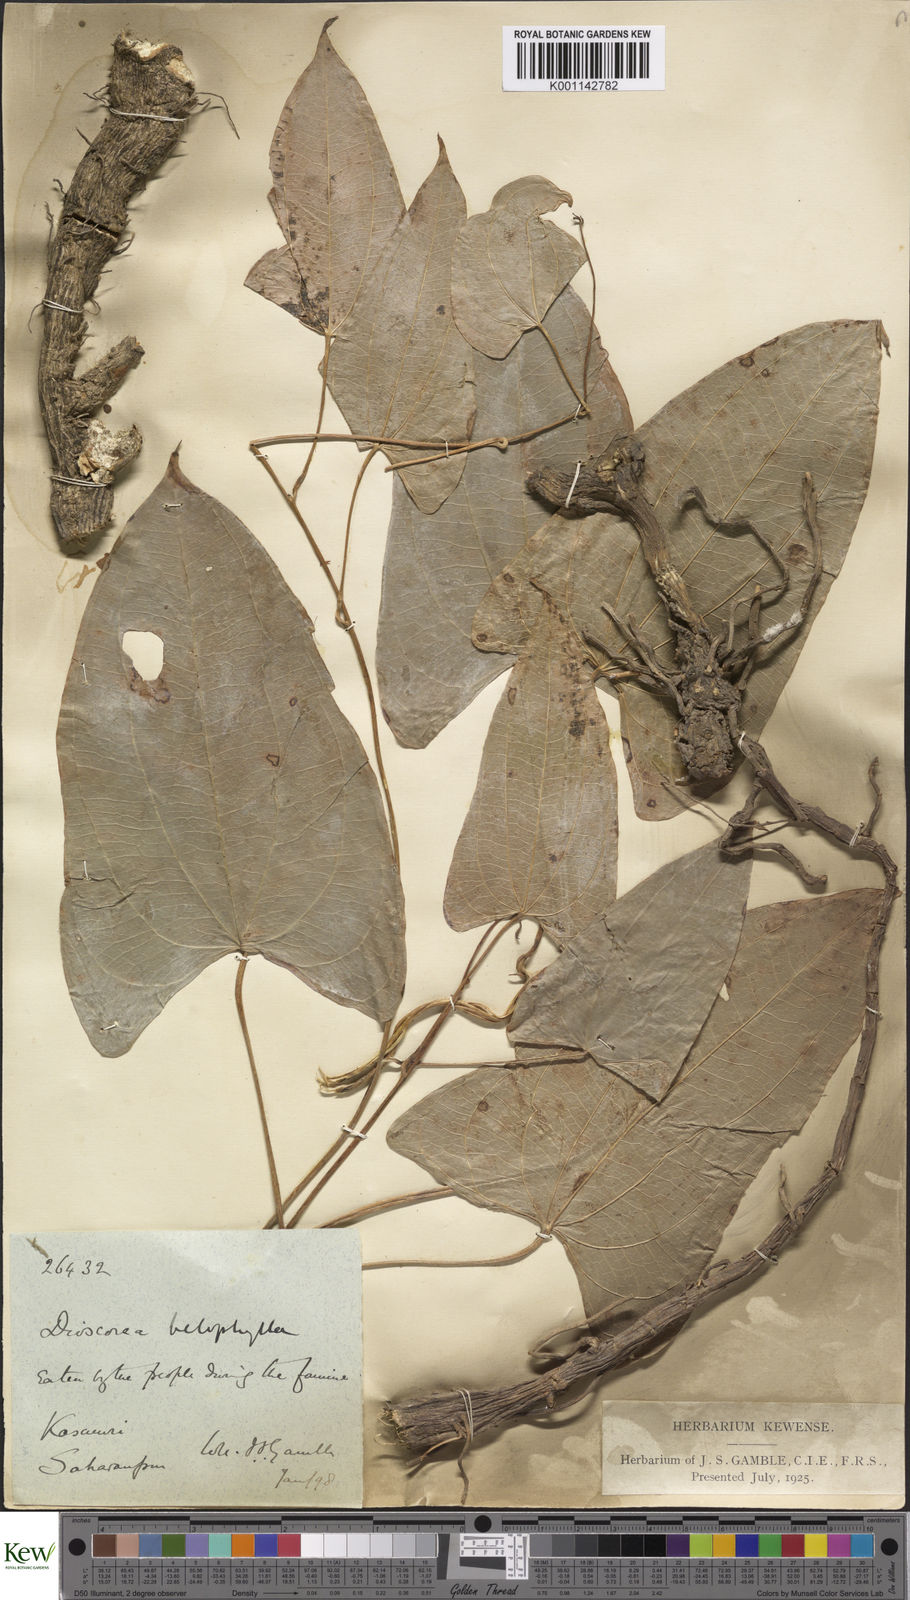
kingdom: Plantae
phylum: Tracheophyta
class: Liliopsida
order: Dioscoreales
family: Dioscoreaceae
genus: Dioscorea
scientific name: Dioscorea belophylla
